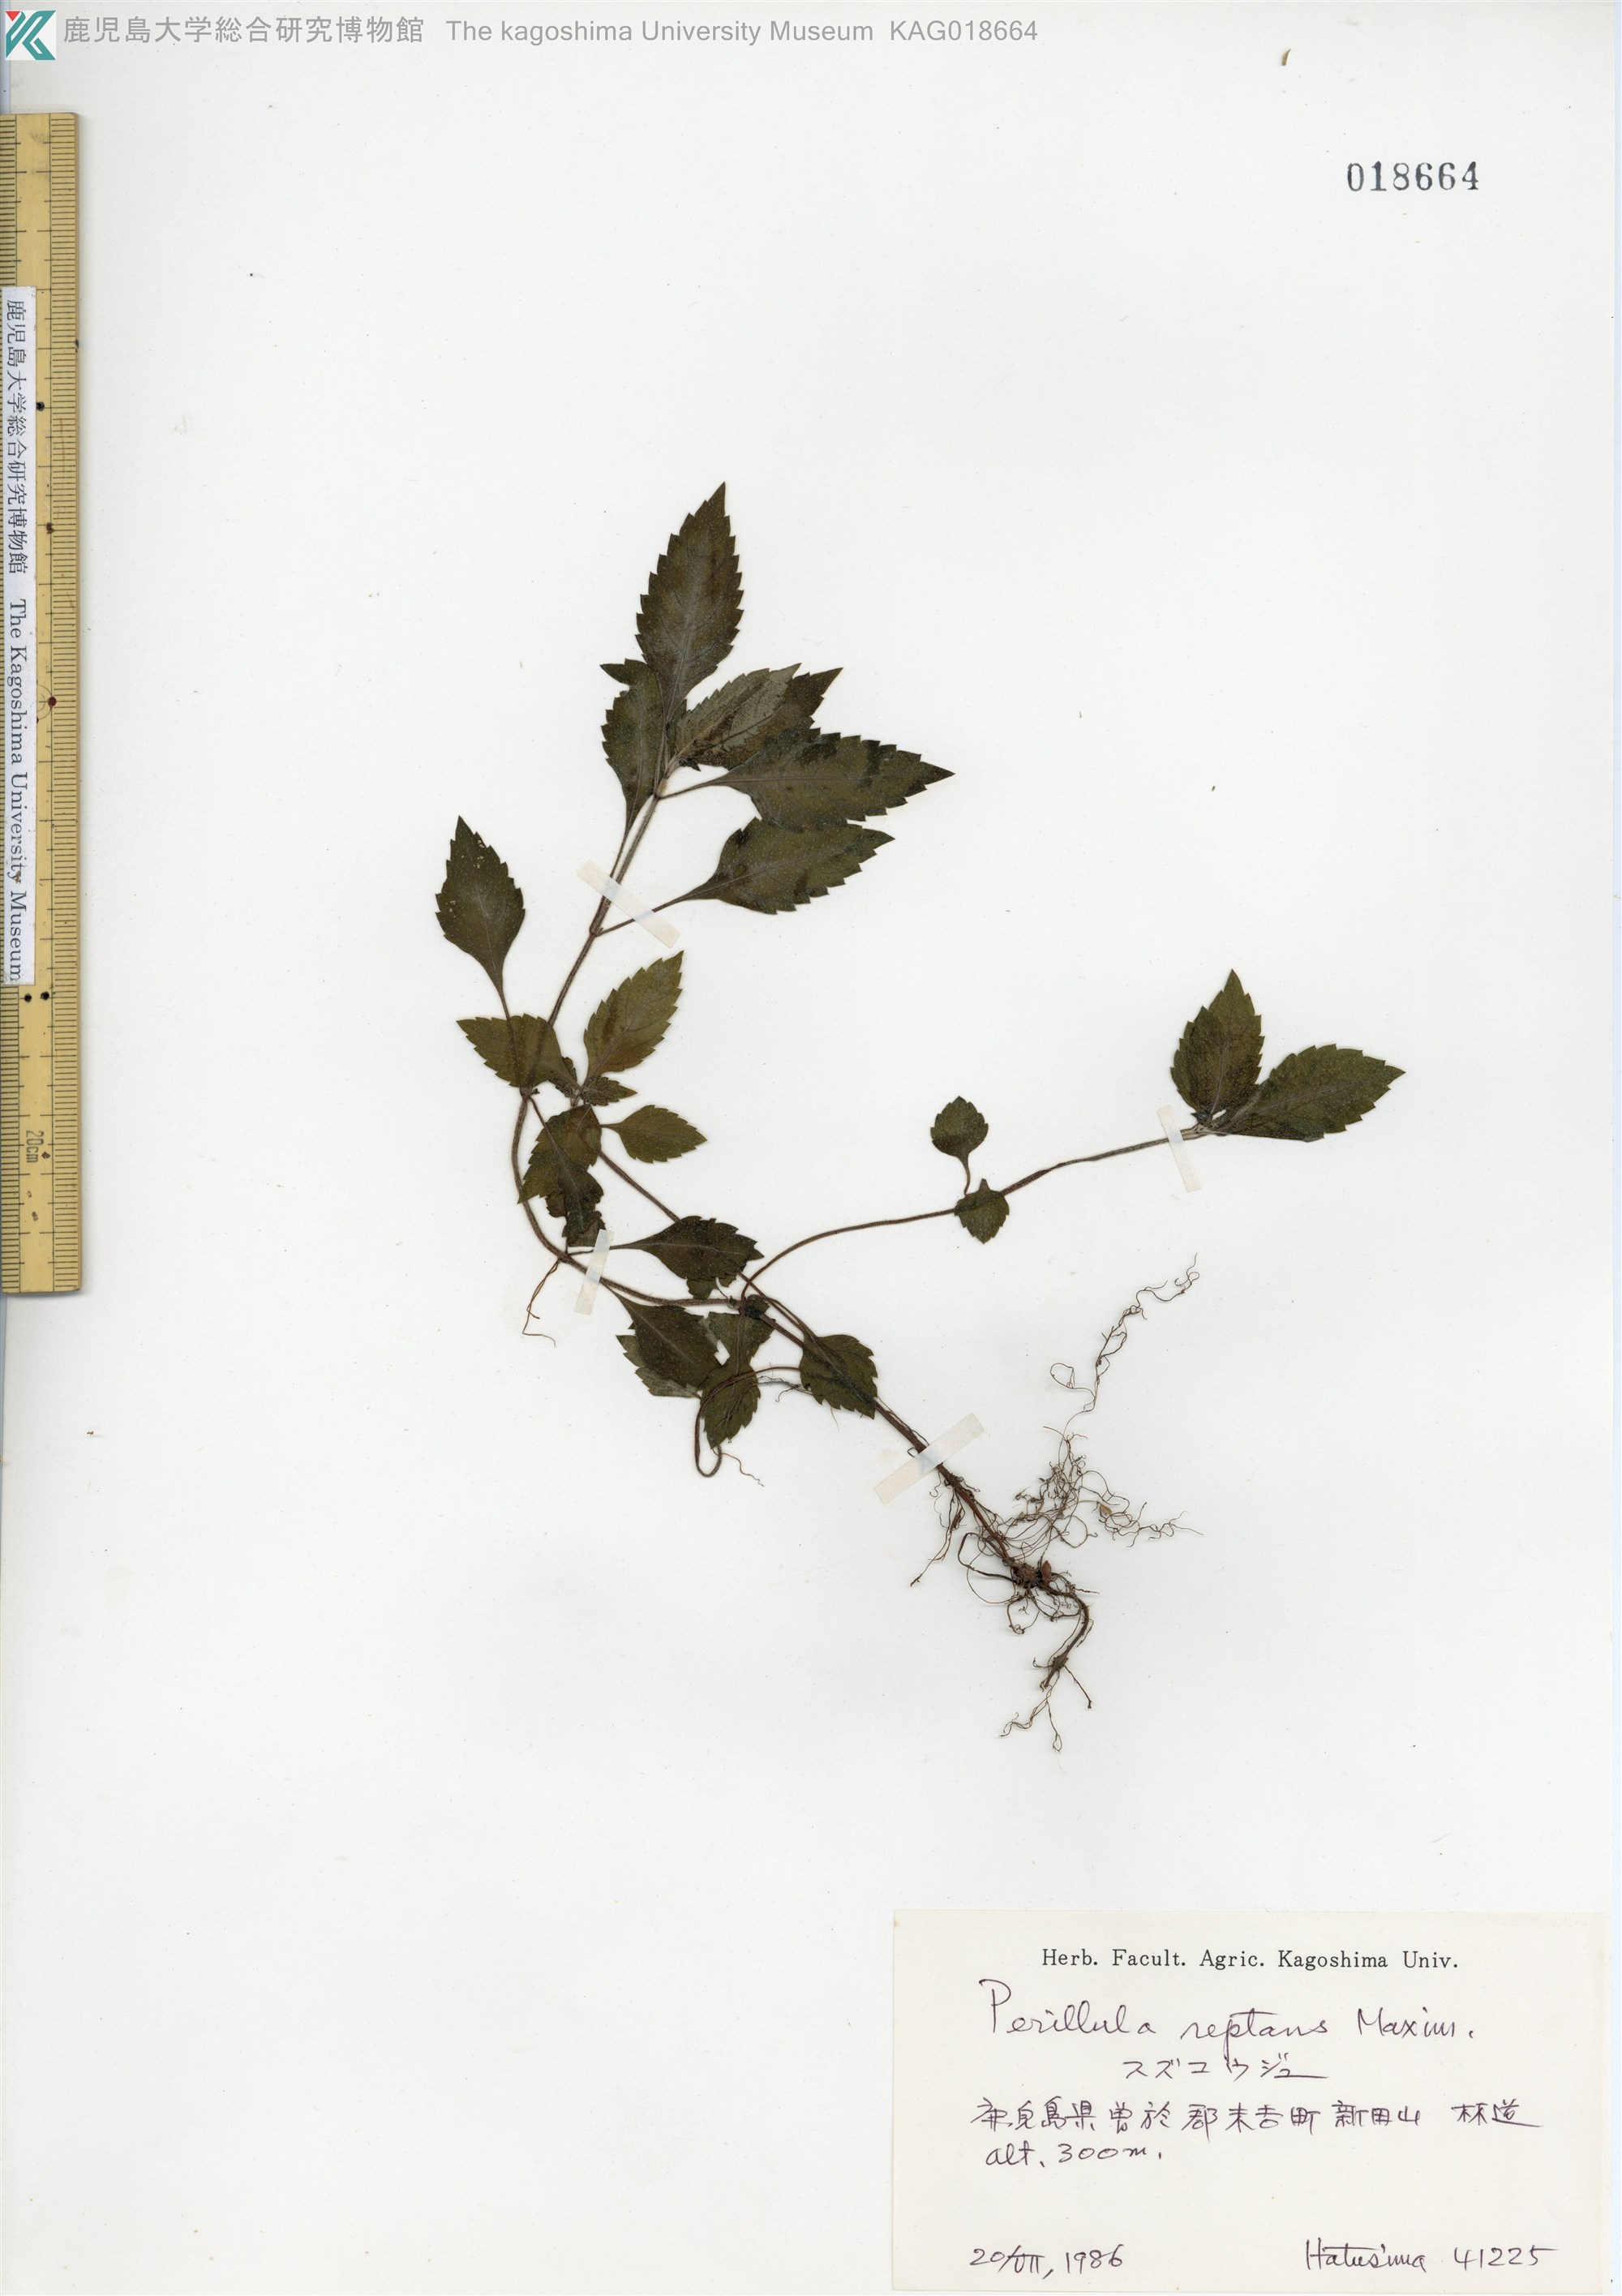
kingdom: Plantae
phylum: Tracheophyta
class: Magnoliopsida
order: Lamiales
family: Lamiaceae
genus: Perillula
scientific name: Perillula reptans
